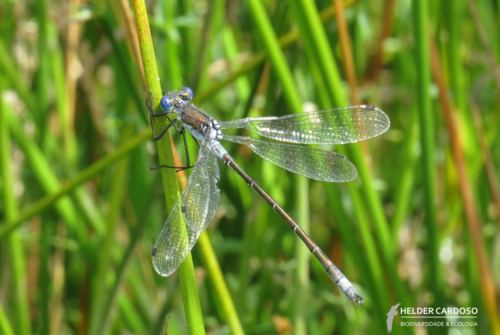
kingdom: Animalia
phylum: Arthropoda
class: Insecta
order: Odonata
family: Lestidae
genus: Lestes
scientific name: Lestes dryas
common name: Scarce emerald damselfly
